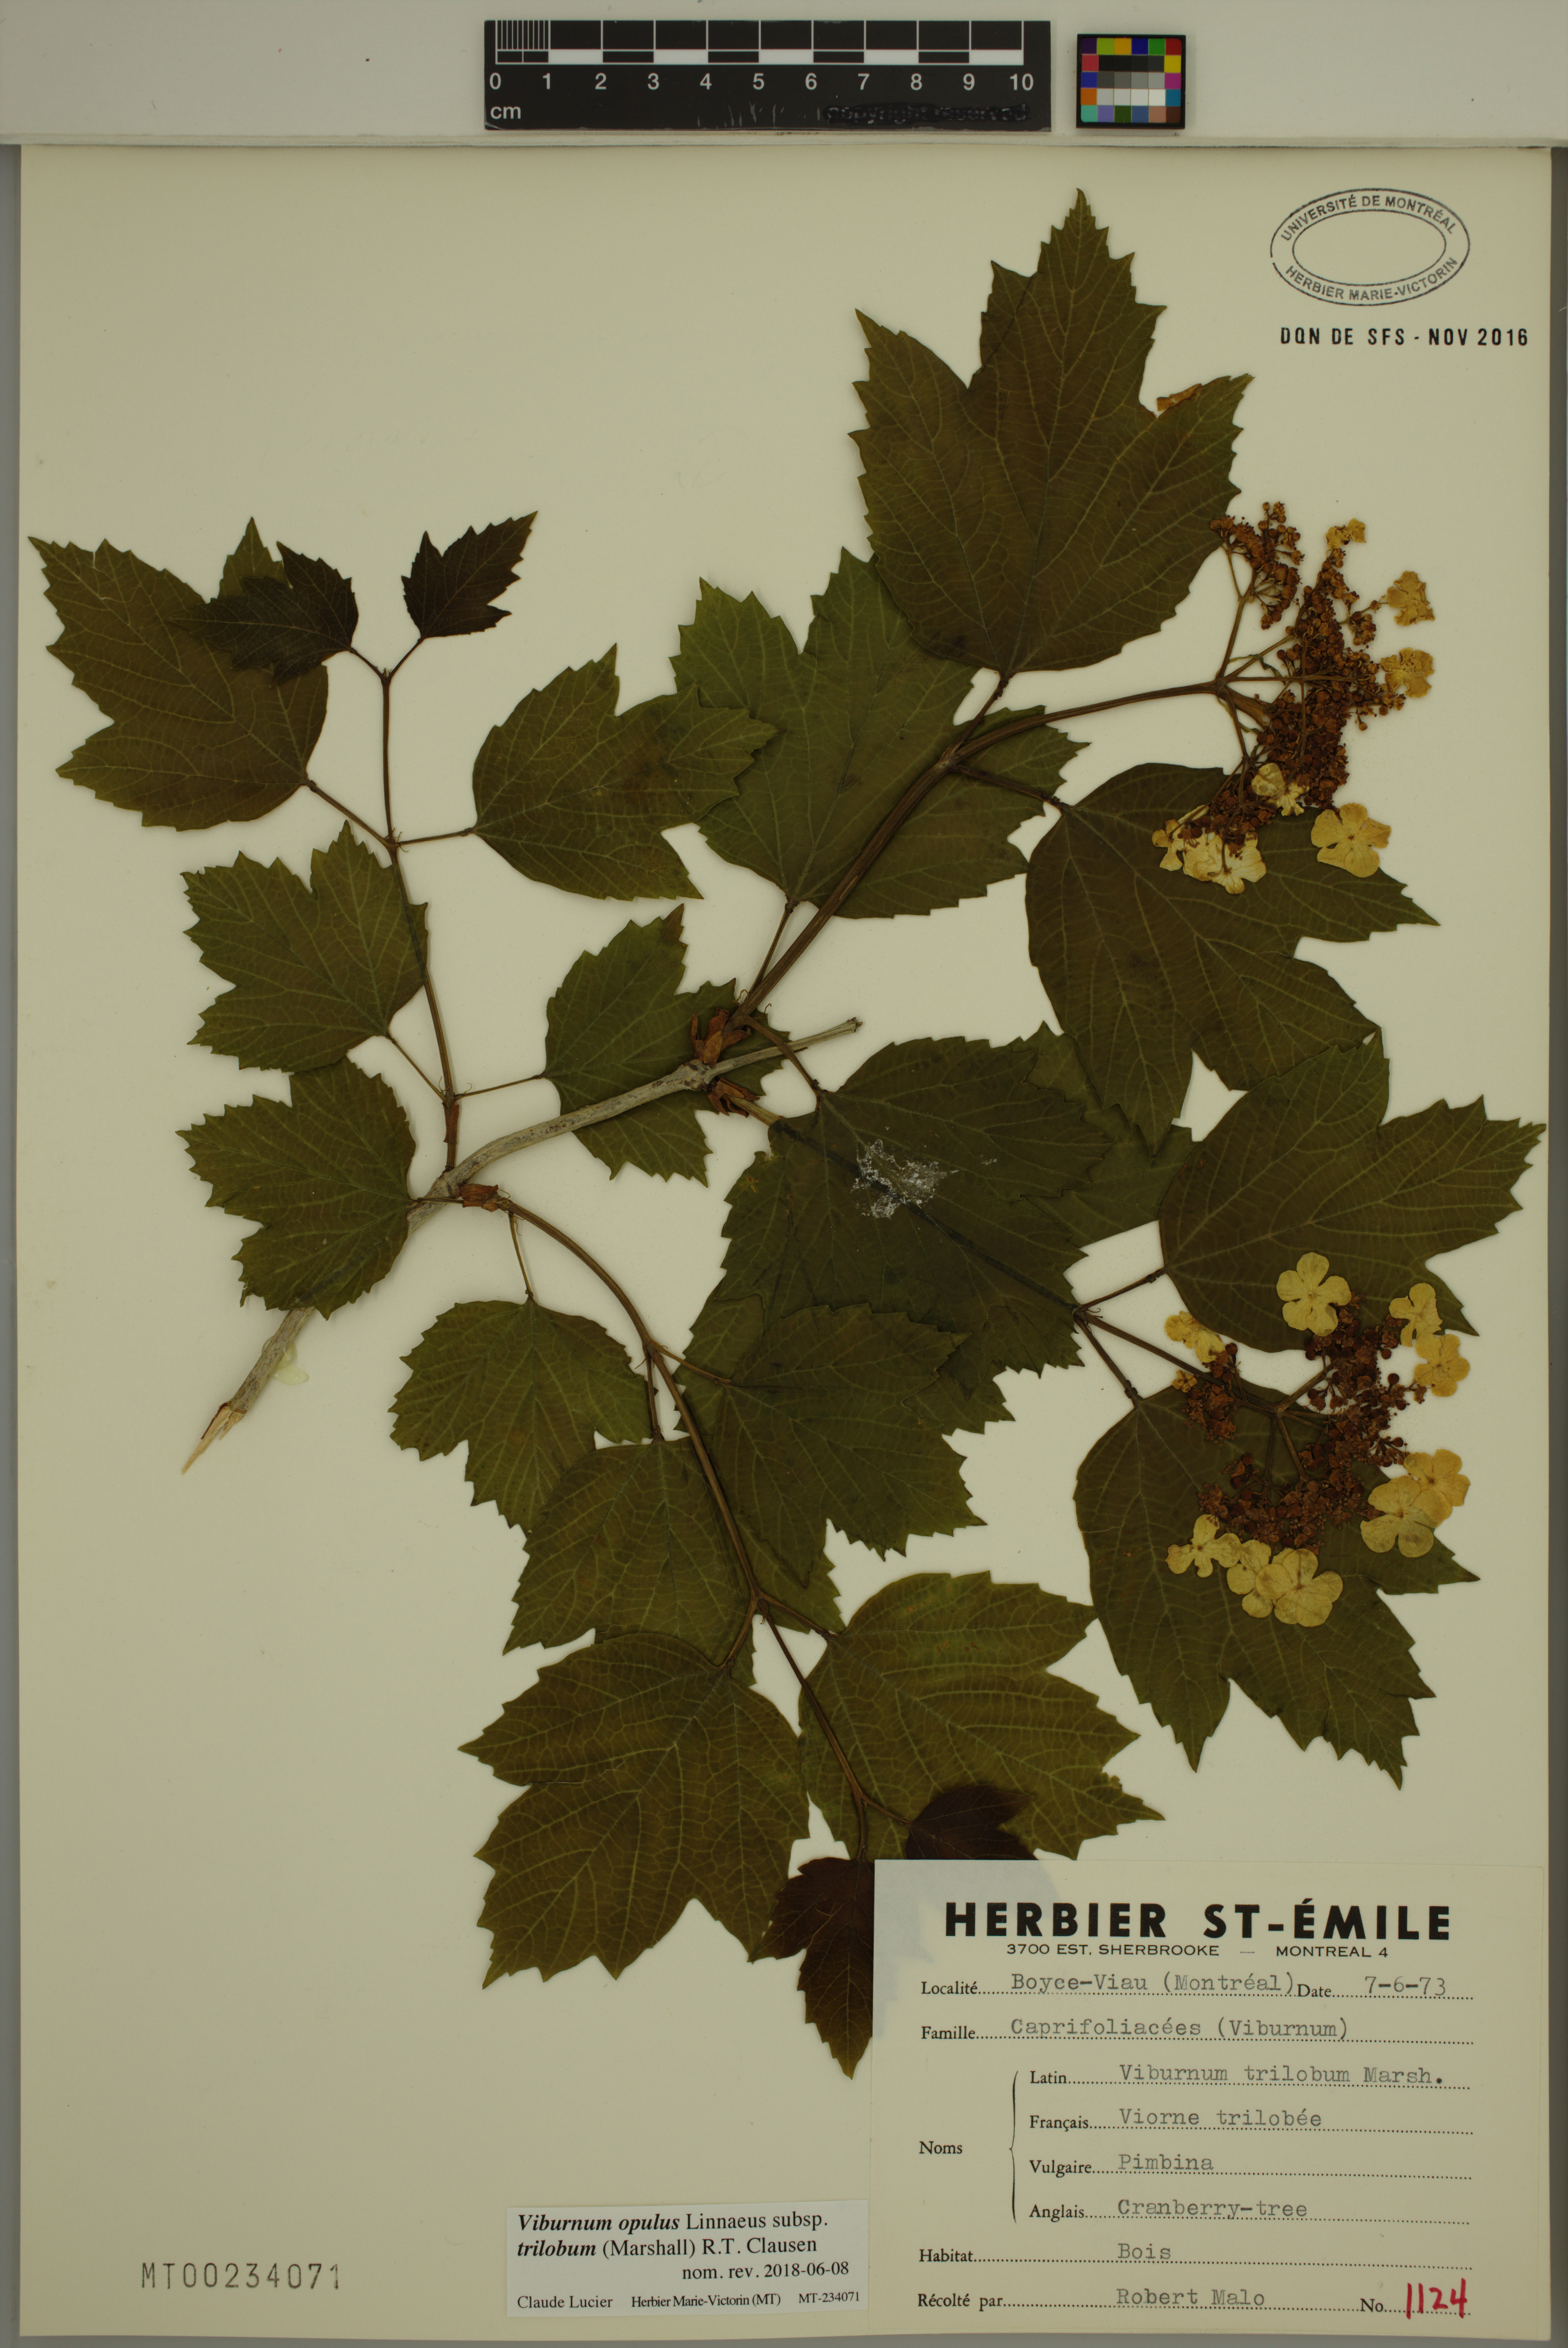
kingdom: Plantae
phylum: Tracheophyta
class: Magnoliopsida
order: Dipsacales
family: Viburnaceae
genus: Viburnum
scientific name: Viburnum trilobum
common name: American cranberrybush
